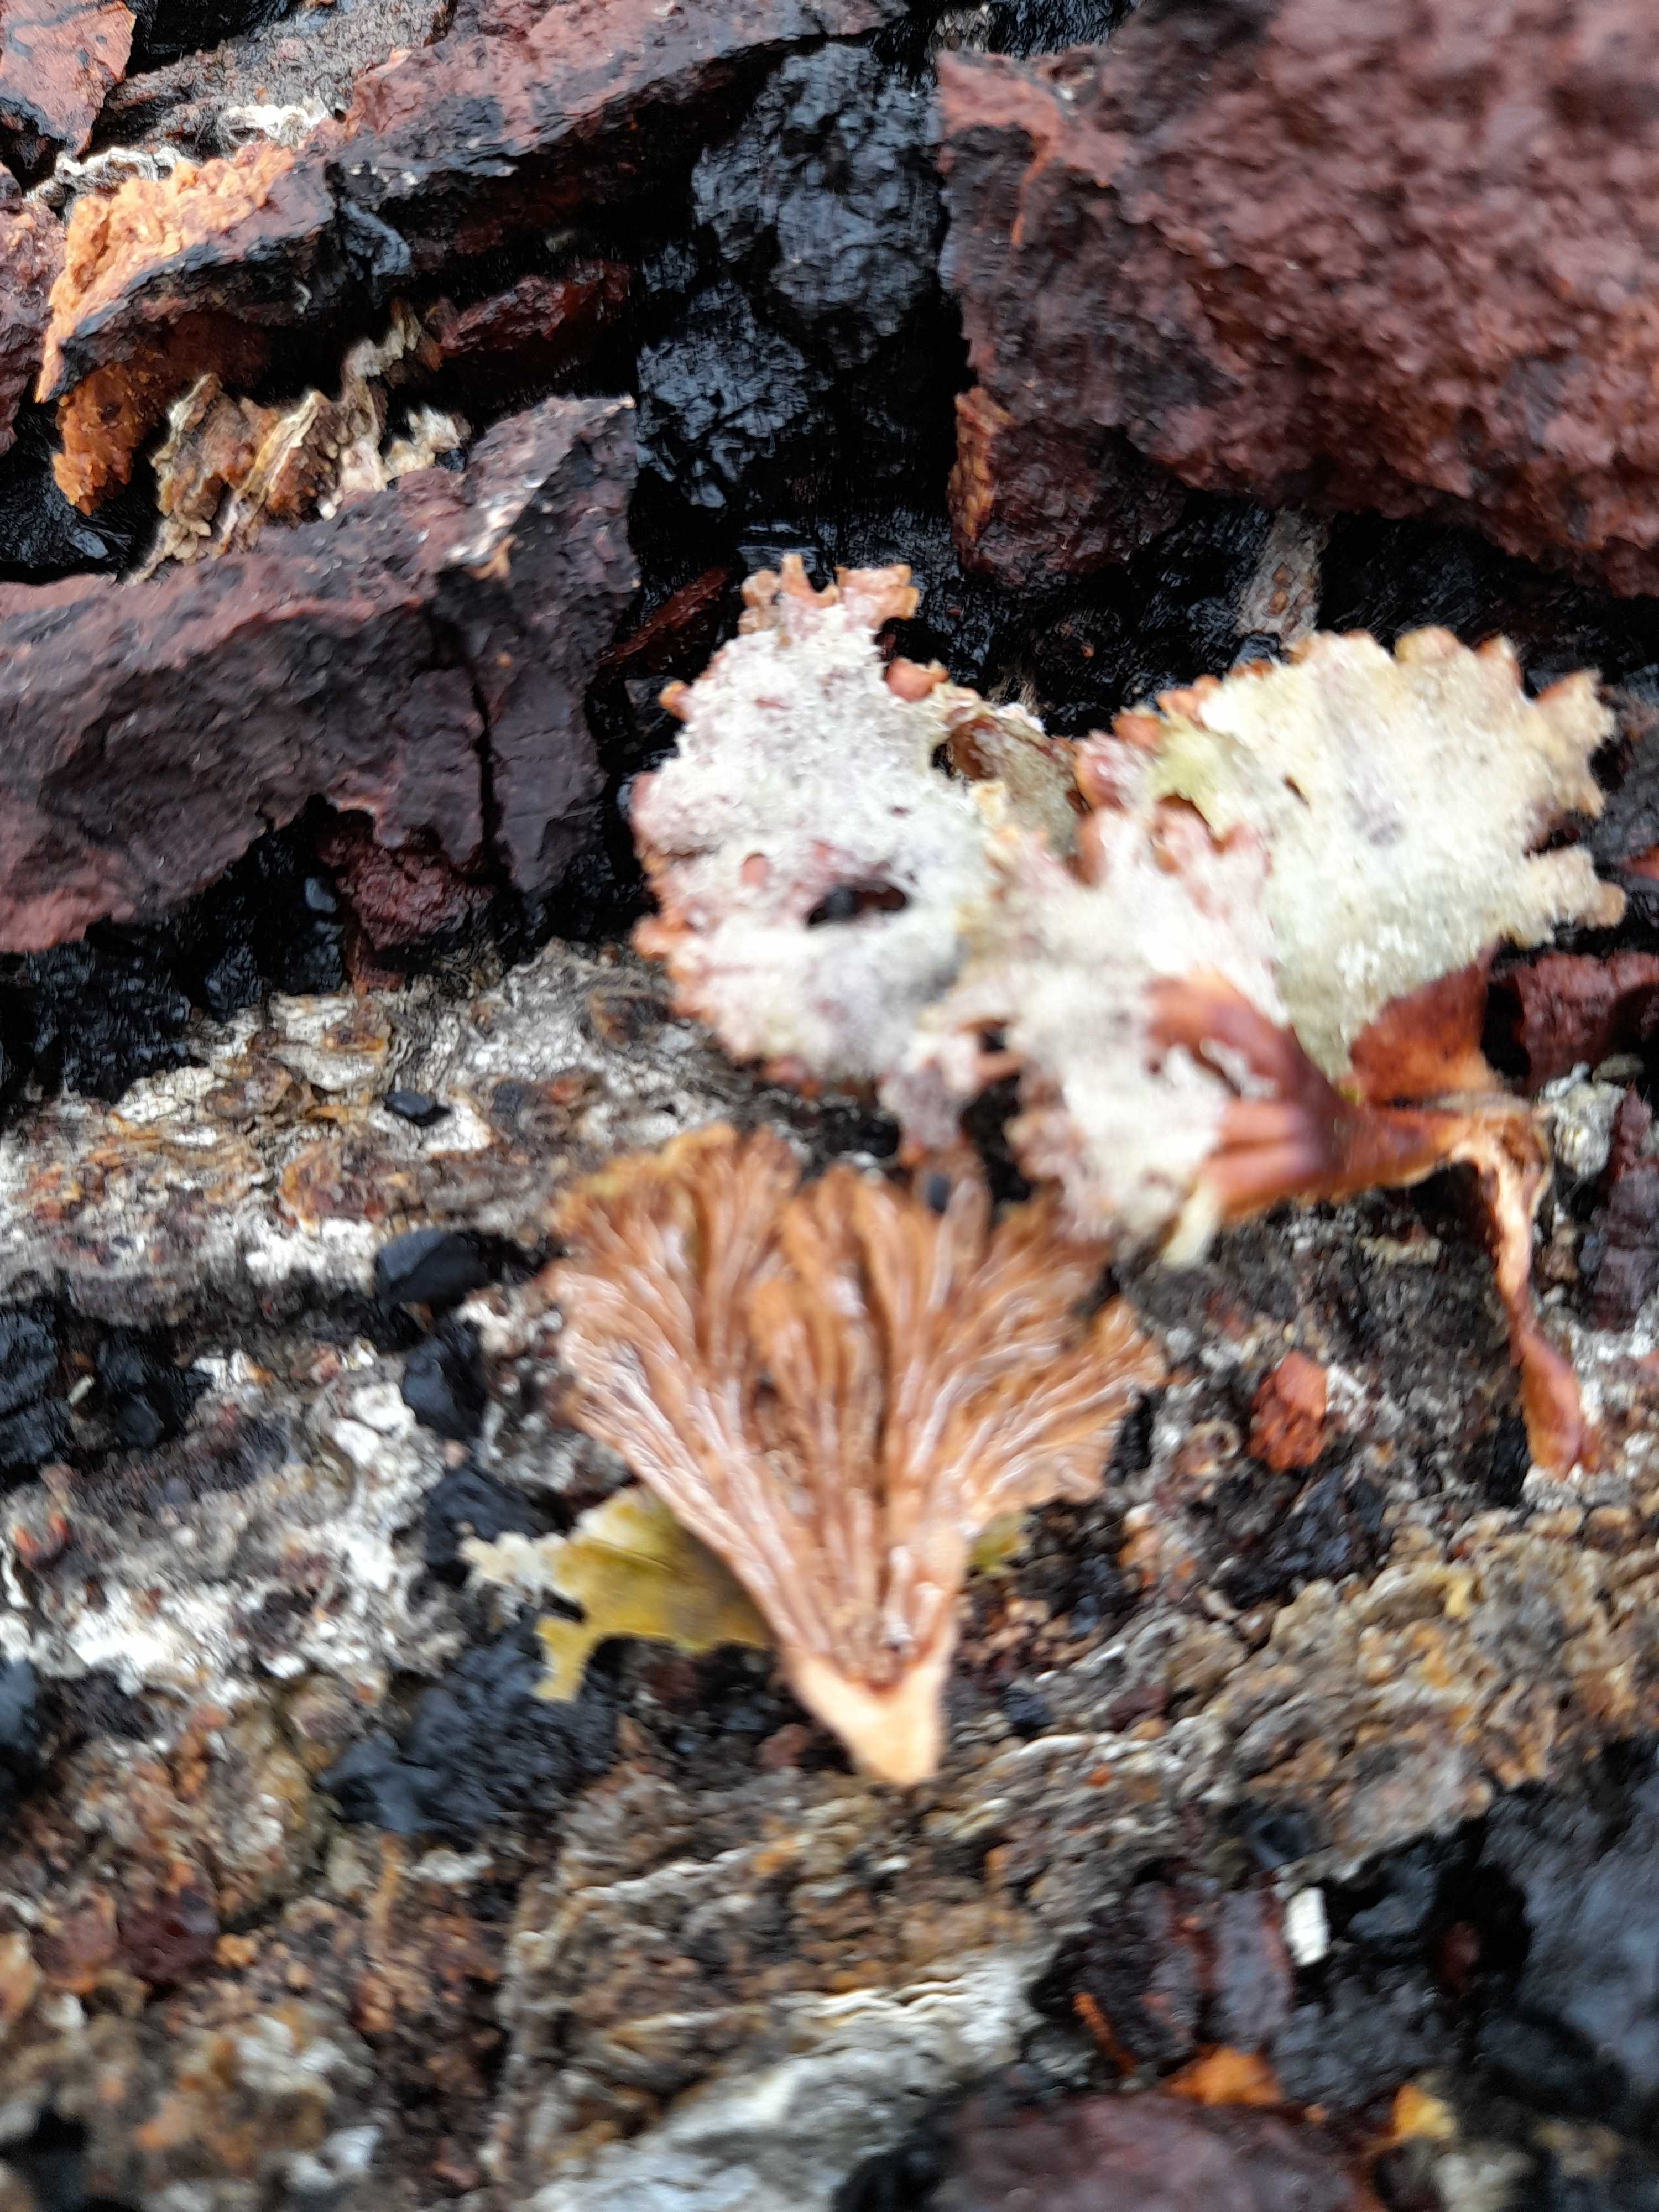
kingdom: Fungi
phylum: Basidiomycota
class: Agaricomycetes
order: Agaricales
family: Schizophyllaceae
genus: Schizophyllum
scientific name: Schizophyllum commune
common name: kløvblad
